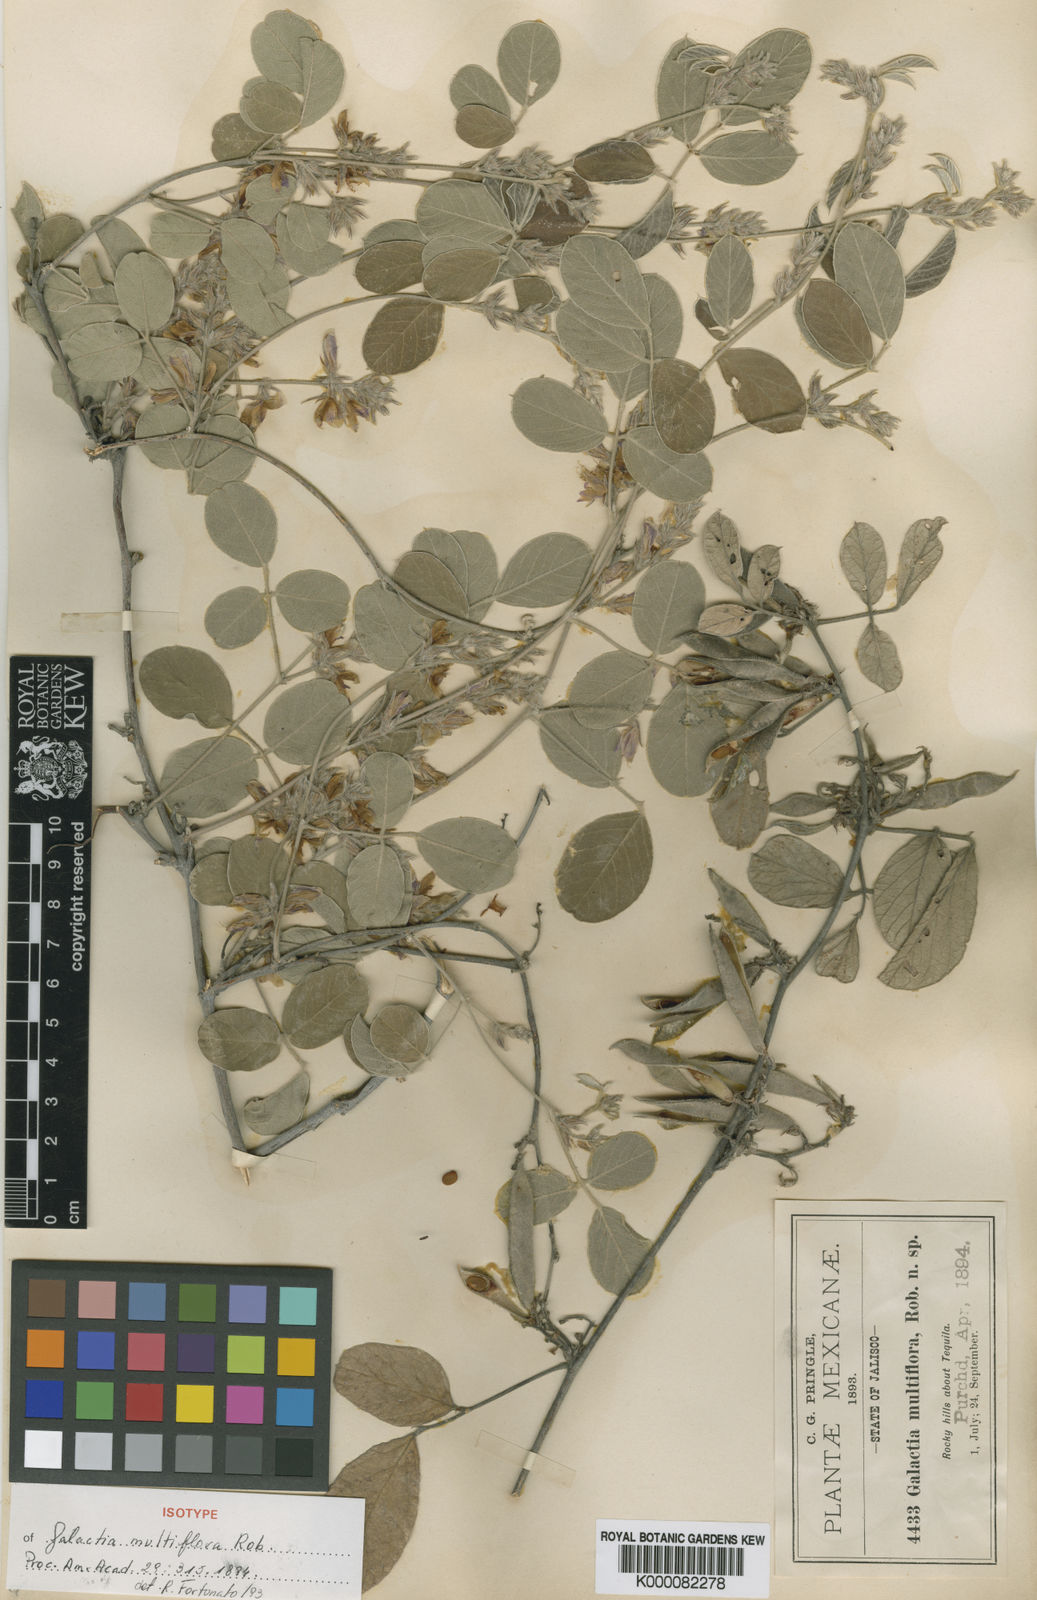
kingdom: Plantae
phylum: Tracheophyta
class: Magnoliopsida
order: Fabales
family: Fabaceae
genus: Galactia
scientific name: Galactia multiflora
